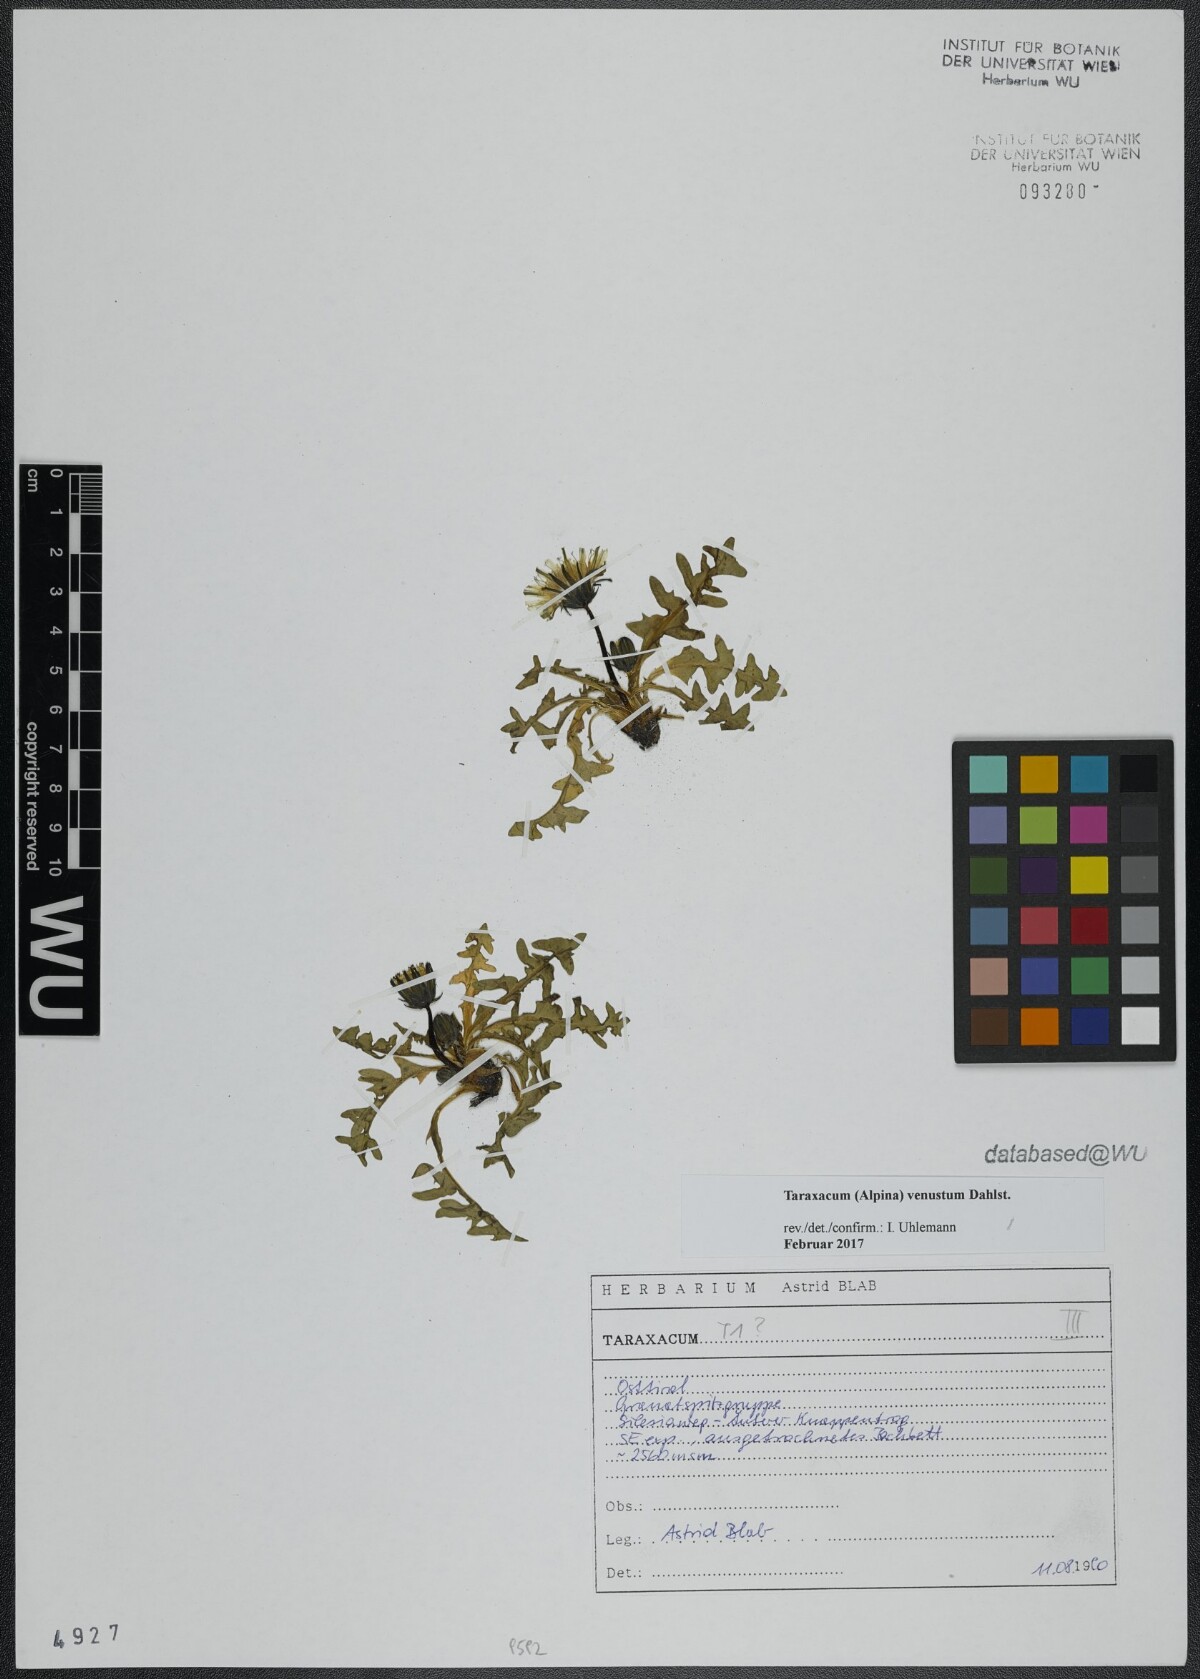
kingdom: Plantae
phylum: Tracheophyta
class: Magnoliopsida
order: Asterales
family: Asteraceae
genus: Taraxacum
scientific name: Taraxacum venustum
